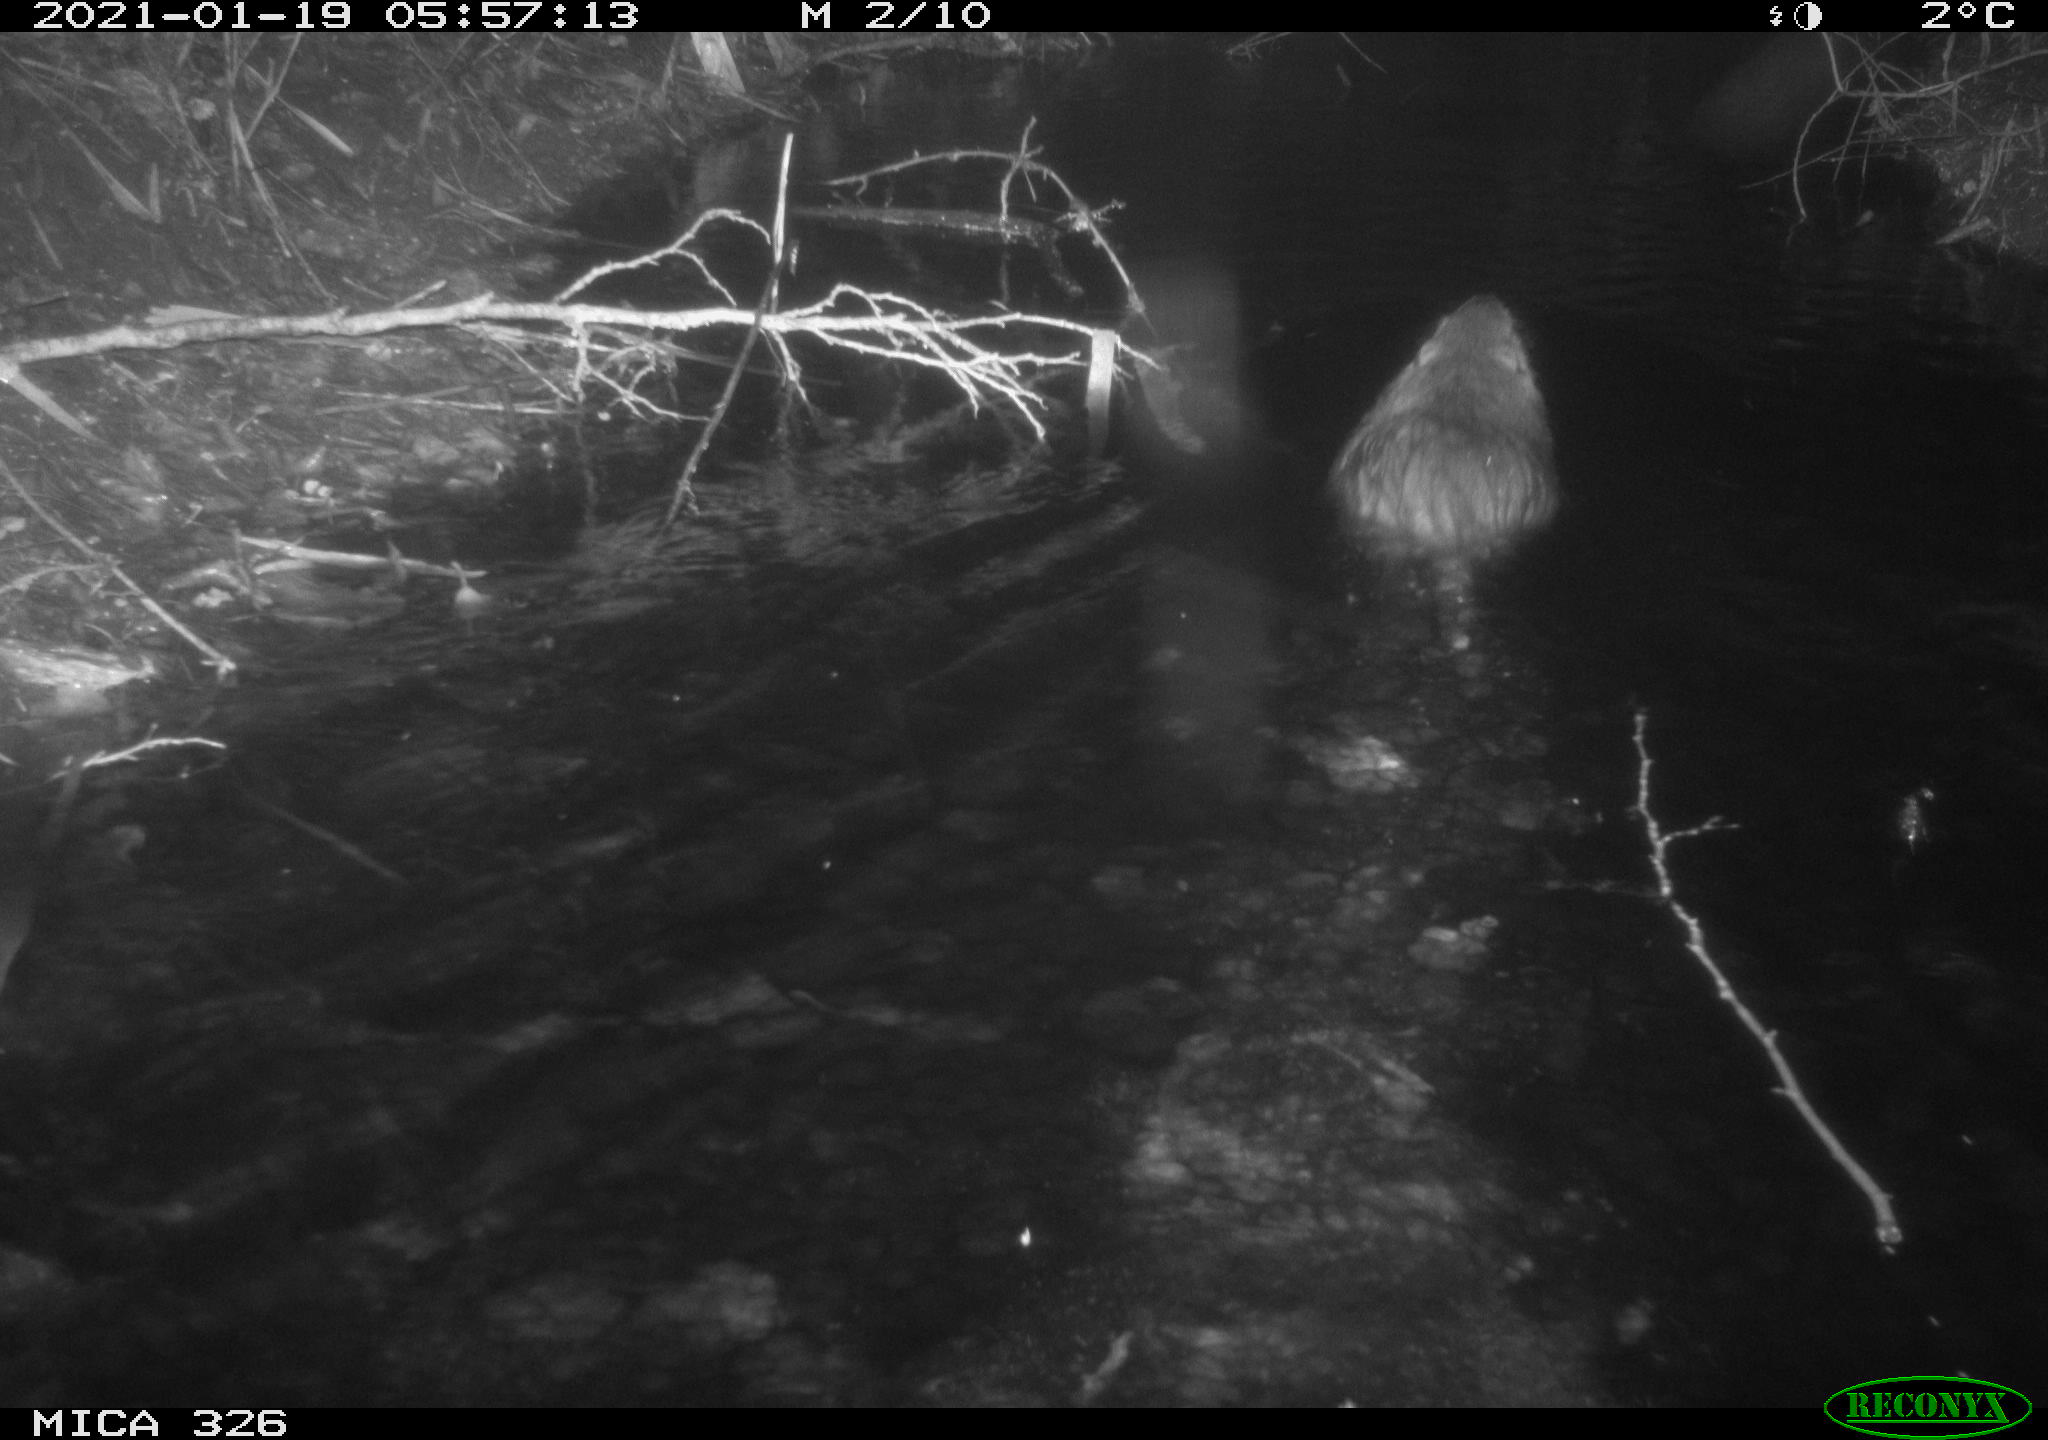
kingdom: Animalia
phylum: Chordata
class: Mammalia
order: Rodentia
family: Myocastoridae
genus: Myocastor
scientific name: Myocastor coypus
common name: Coypu
